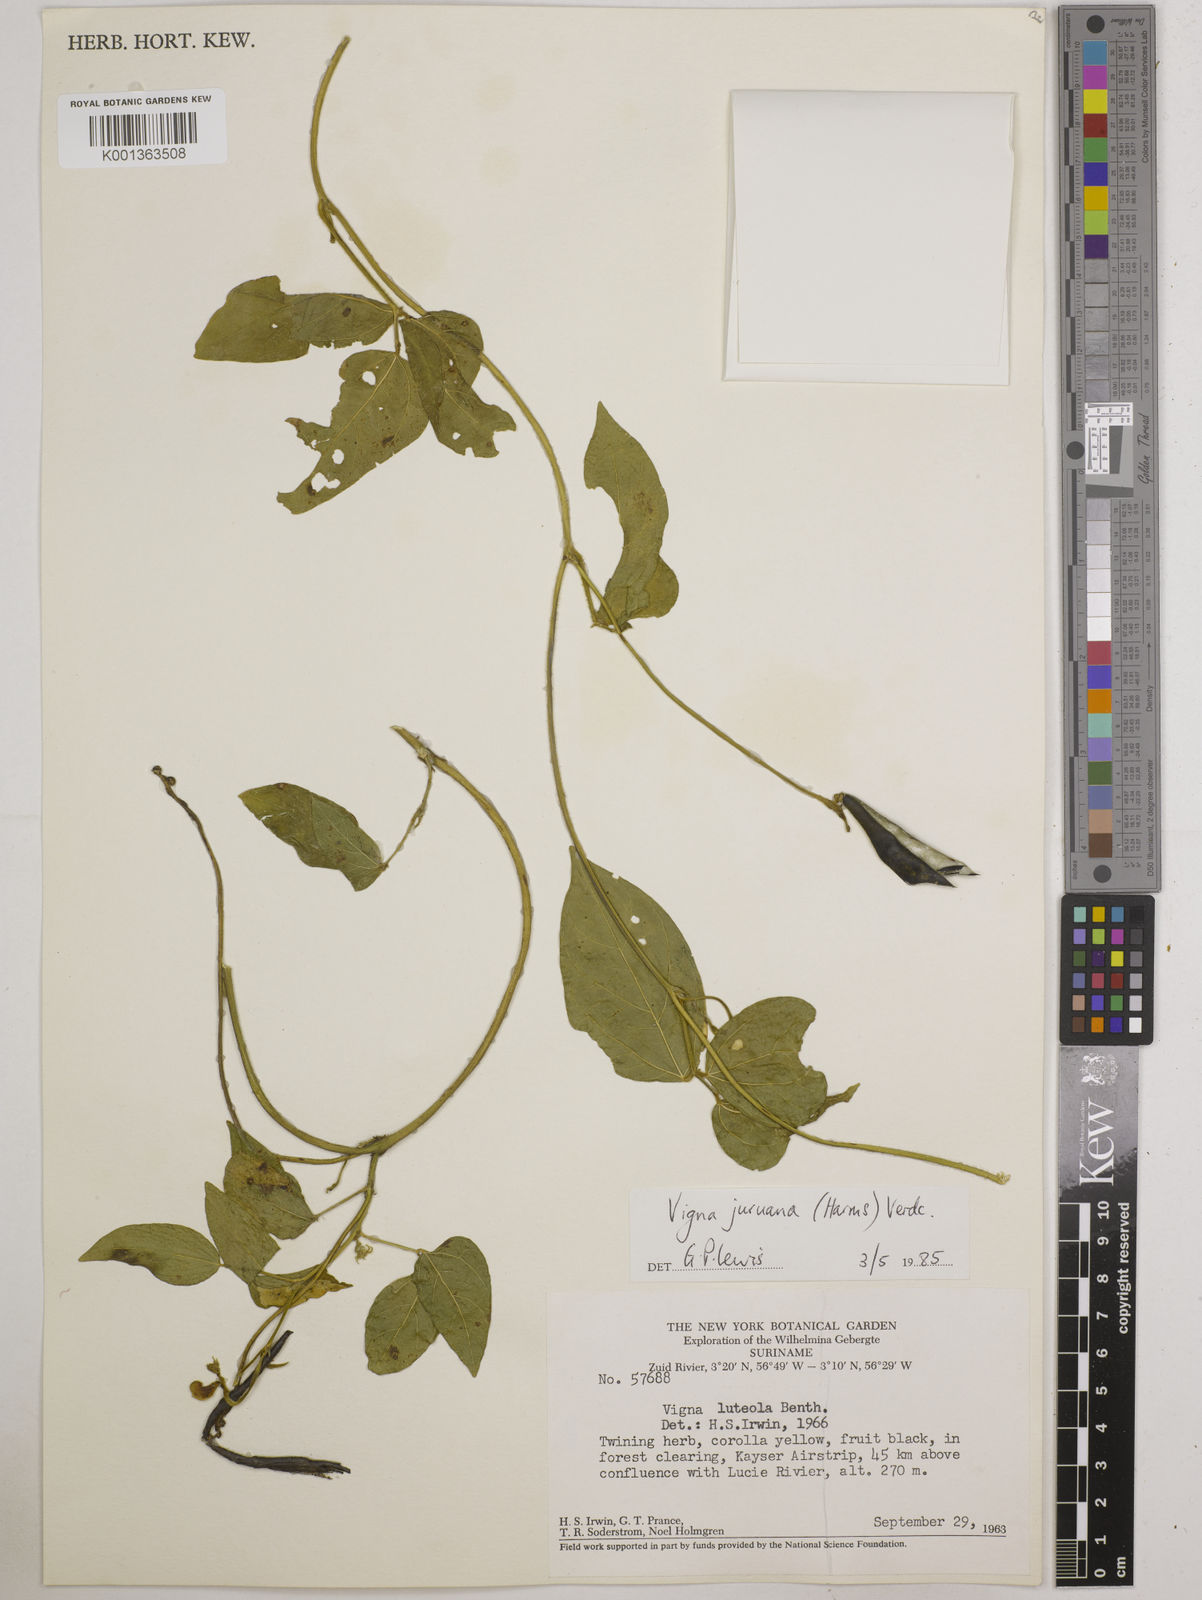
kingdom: Plantae
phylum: Tracheophyta
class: Magnoliopsida
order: Fabales
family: Fabaceae
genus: Vigna
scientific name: Vigna juruana
